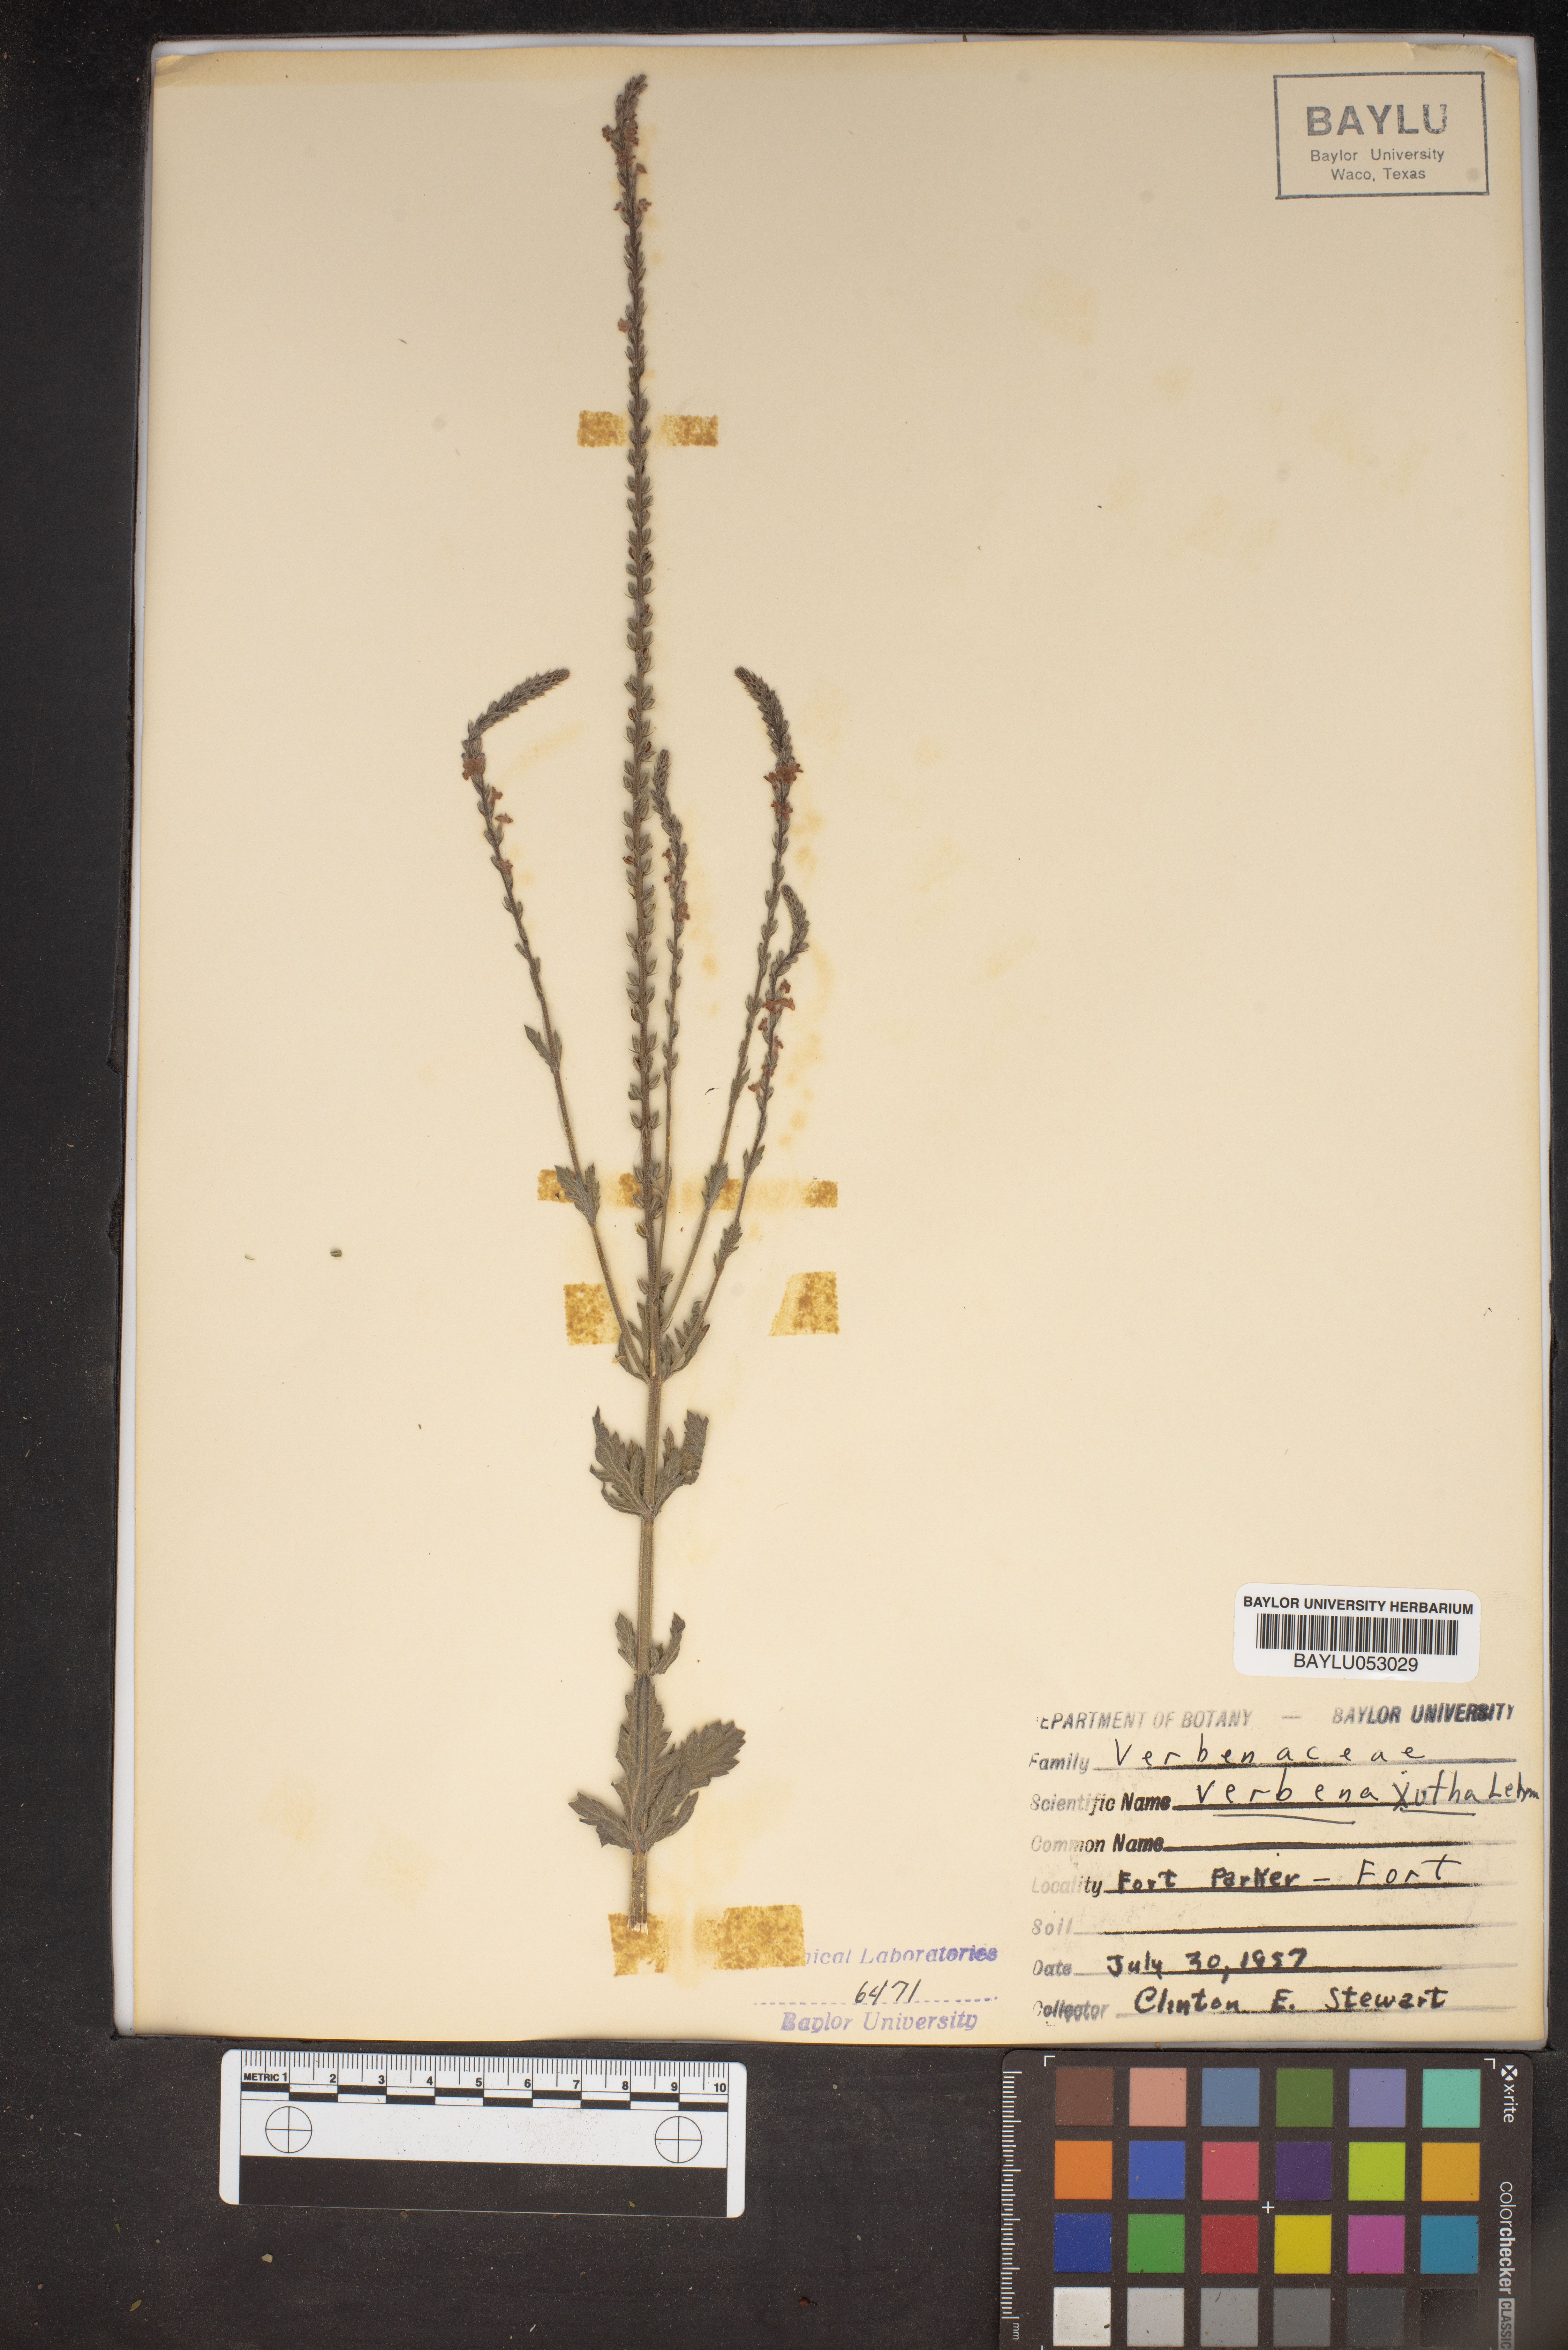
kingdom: Plantae
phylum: Tracheophyta
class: Magnoliopsida
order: Lamiales
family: Verbenaceae
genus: Verbena
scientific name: Verbena xutha
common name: Gulf vervain
